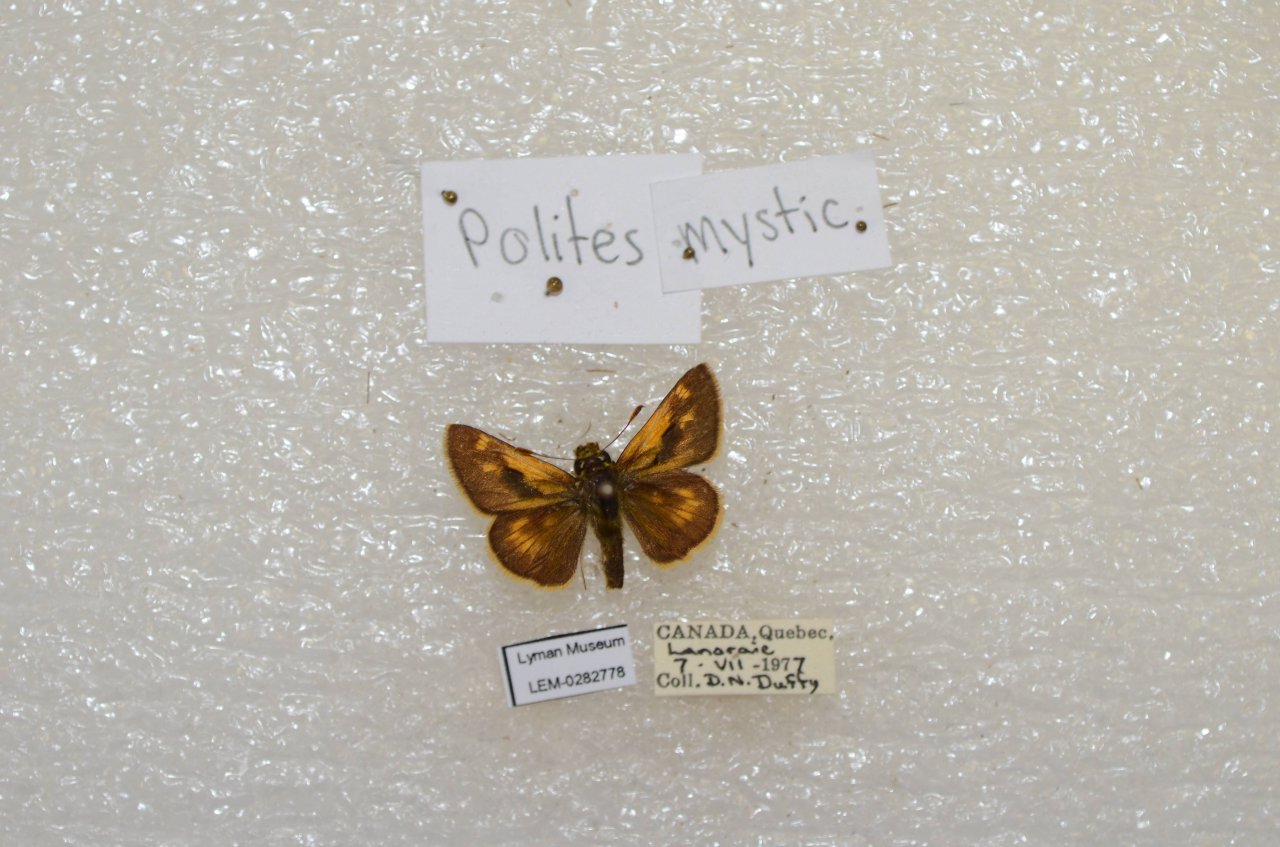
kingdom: Animalia
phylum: Arthropoda
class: Insecta
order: Lepidoptera
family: Hesperiidae
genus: Polites
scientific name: Polites
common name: Long Dash Skipper
